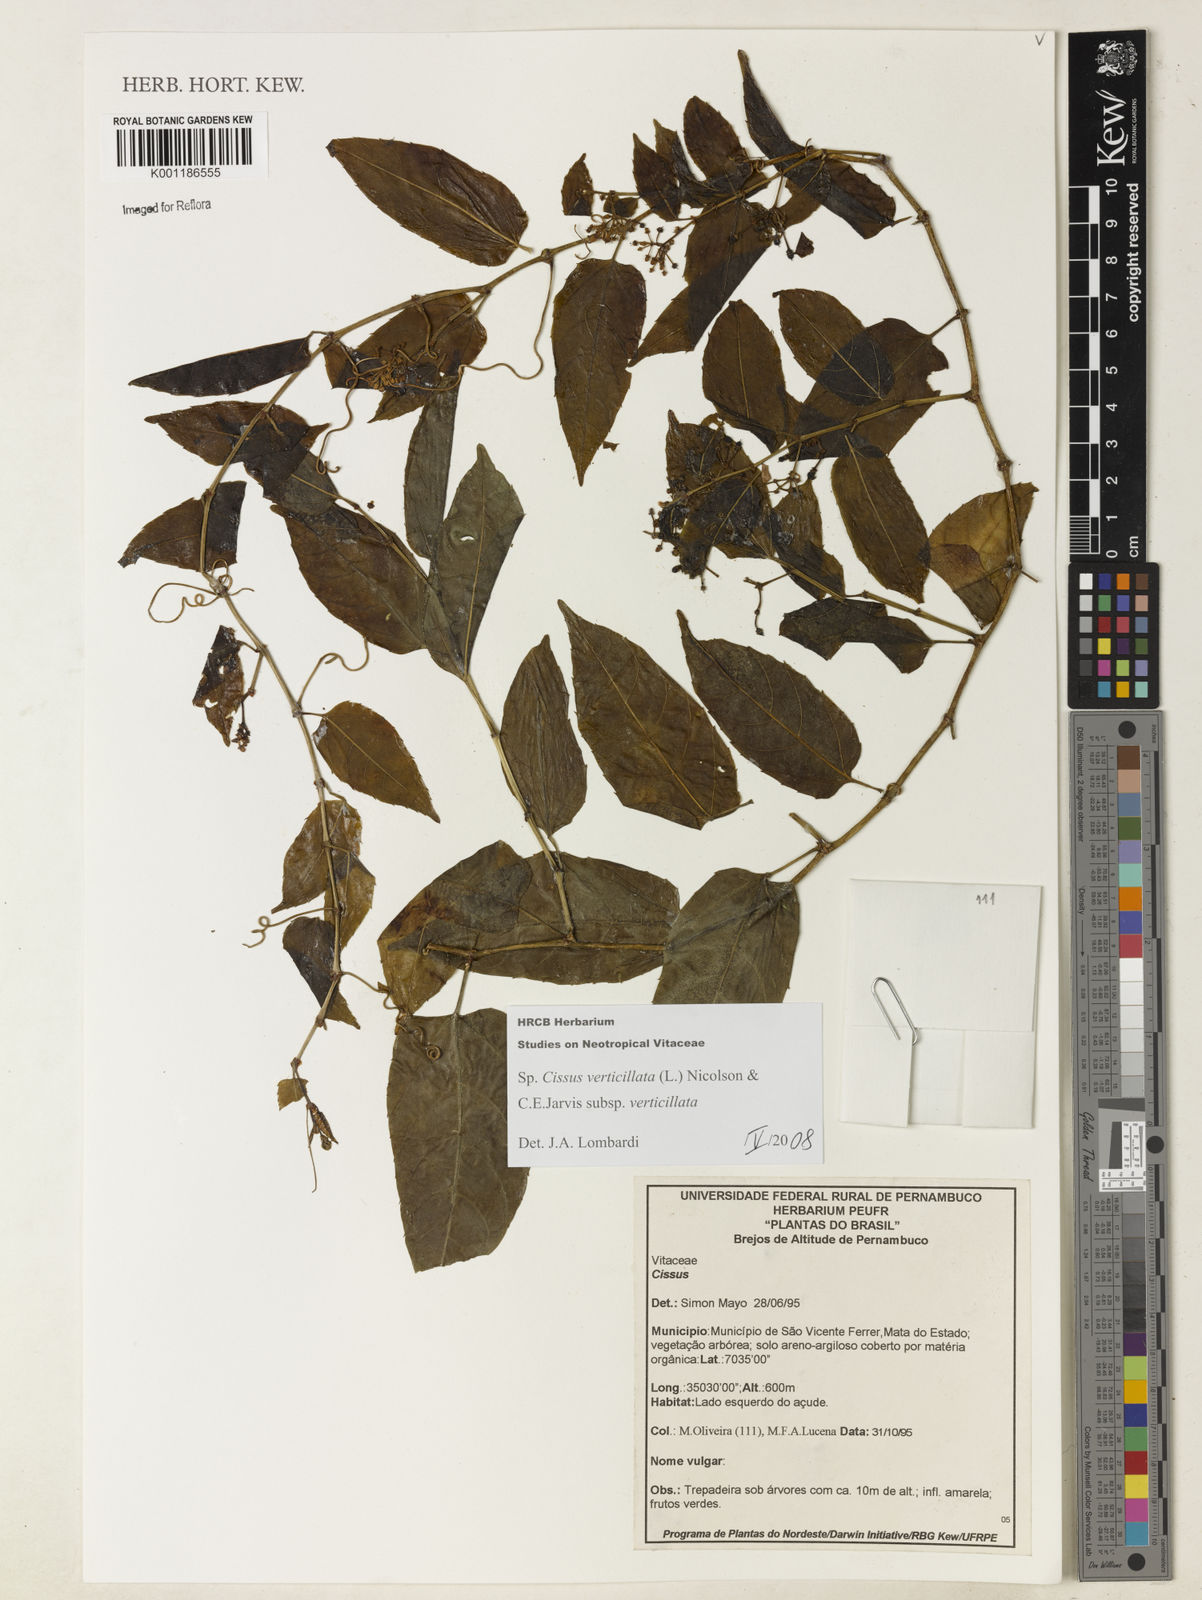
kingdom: Plantae
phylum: Tracheophyta
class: Magnoliopsida
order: Vitales
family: Vitaceae
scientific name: Vitaceae
